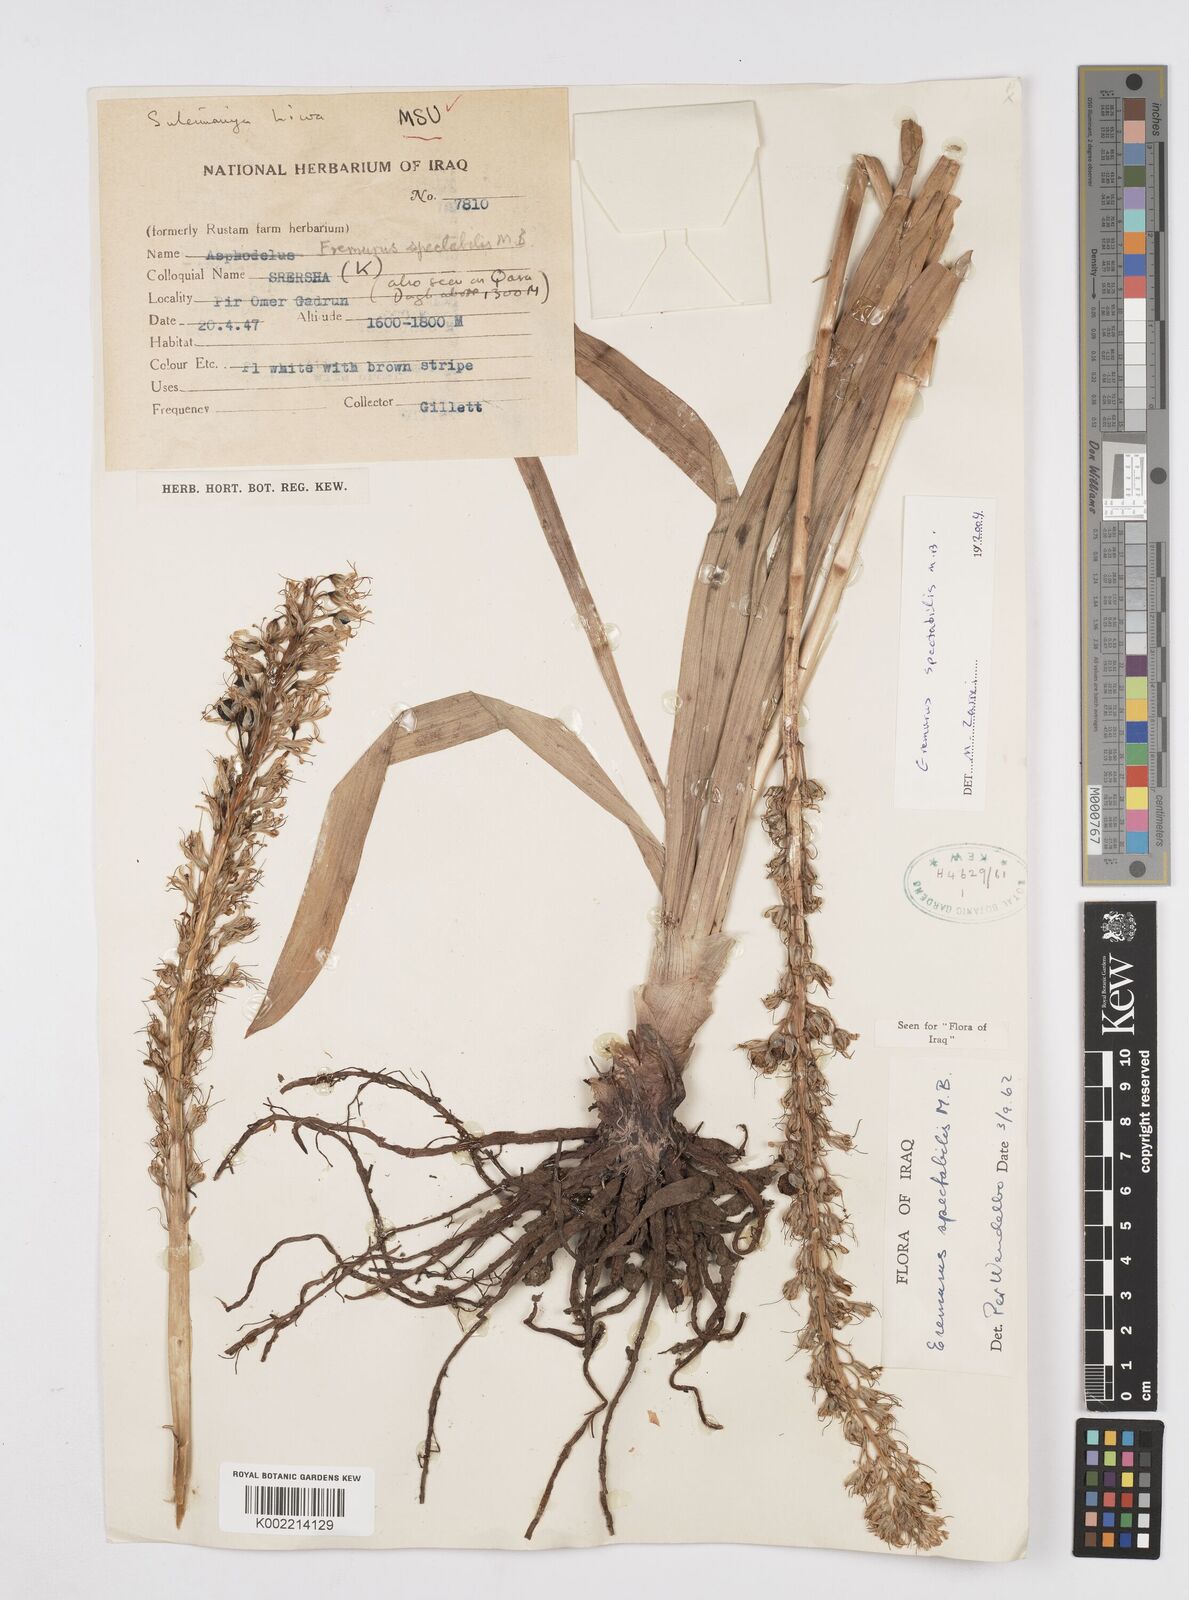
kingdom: Plantae
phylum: Tracheophyta
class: Liliopsida
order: Asparagales
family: Asphodelaceae
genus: Eremurus
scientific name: Eremurus spectabilis
